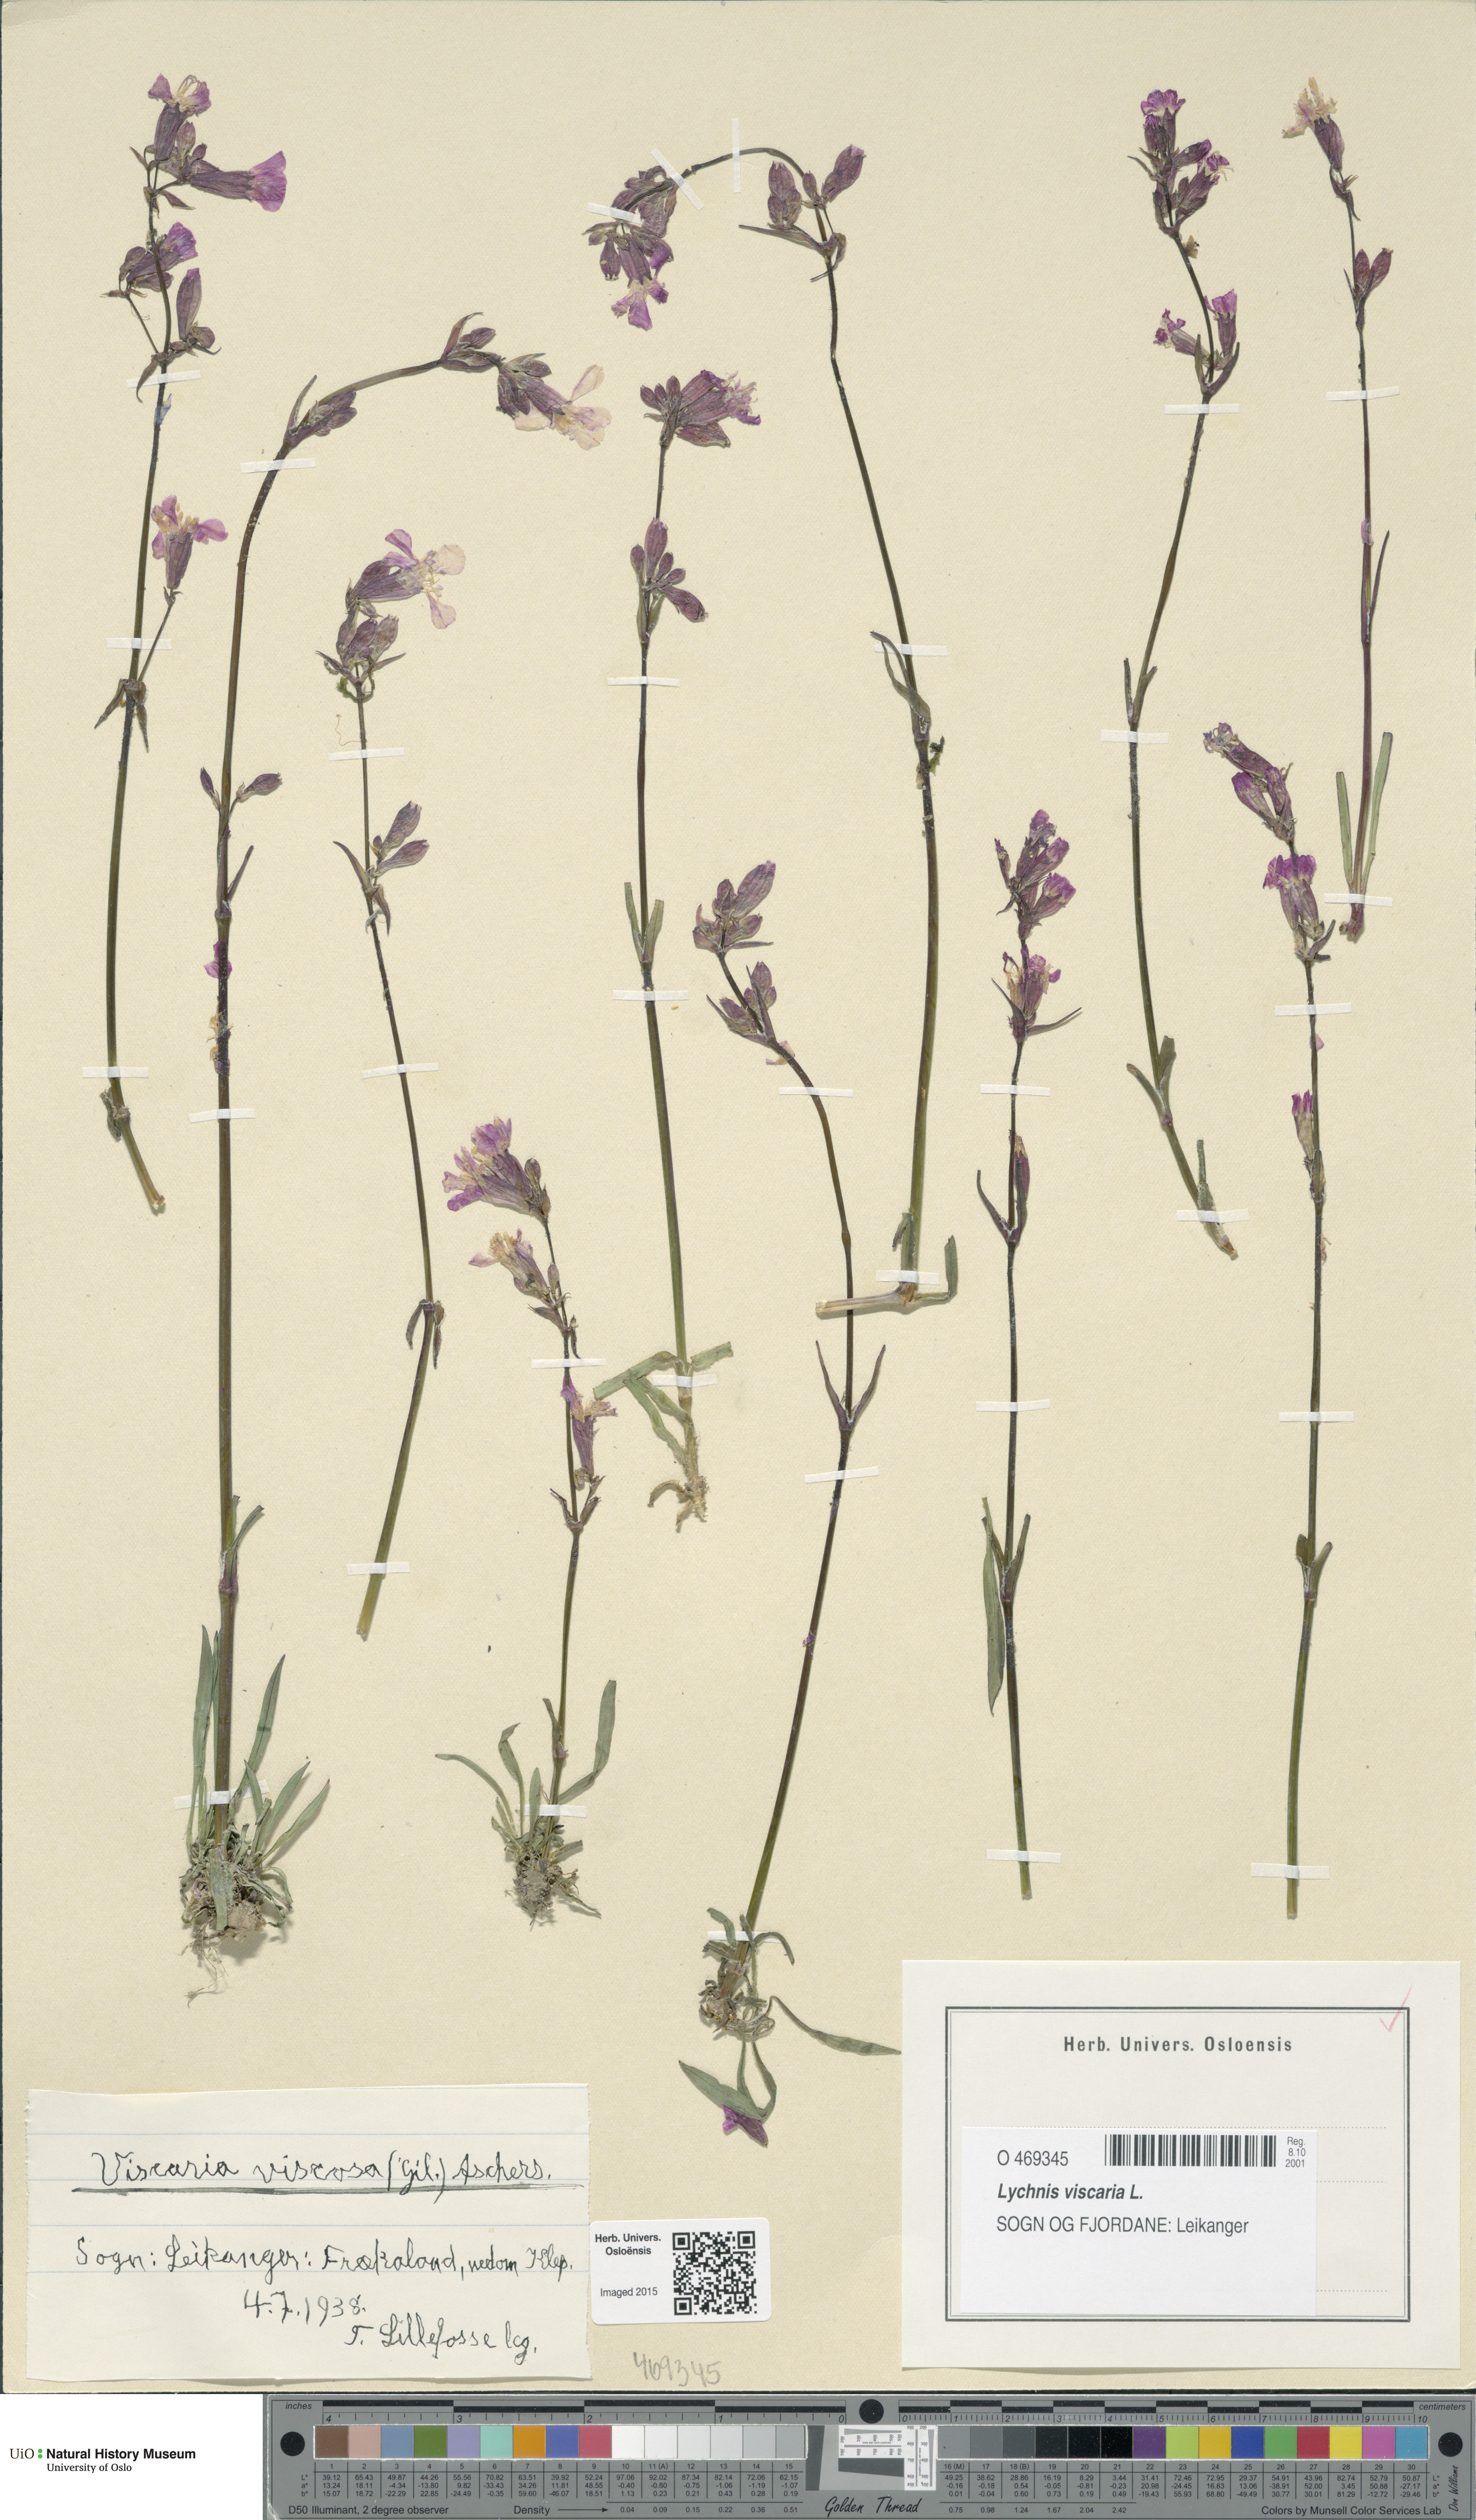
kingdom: Plantae
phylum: Tracheophyta
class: Magnoliopsida
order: Caryophyllales
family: Caryophyllaceae
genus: Viscaria
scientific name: Viscaria vulgaris
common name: Clammy campion
